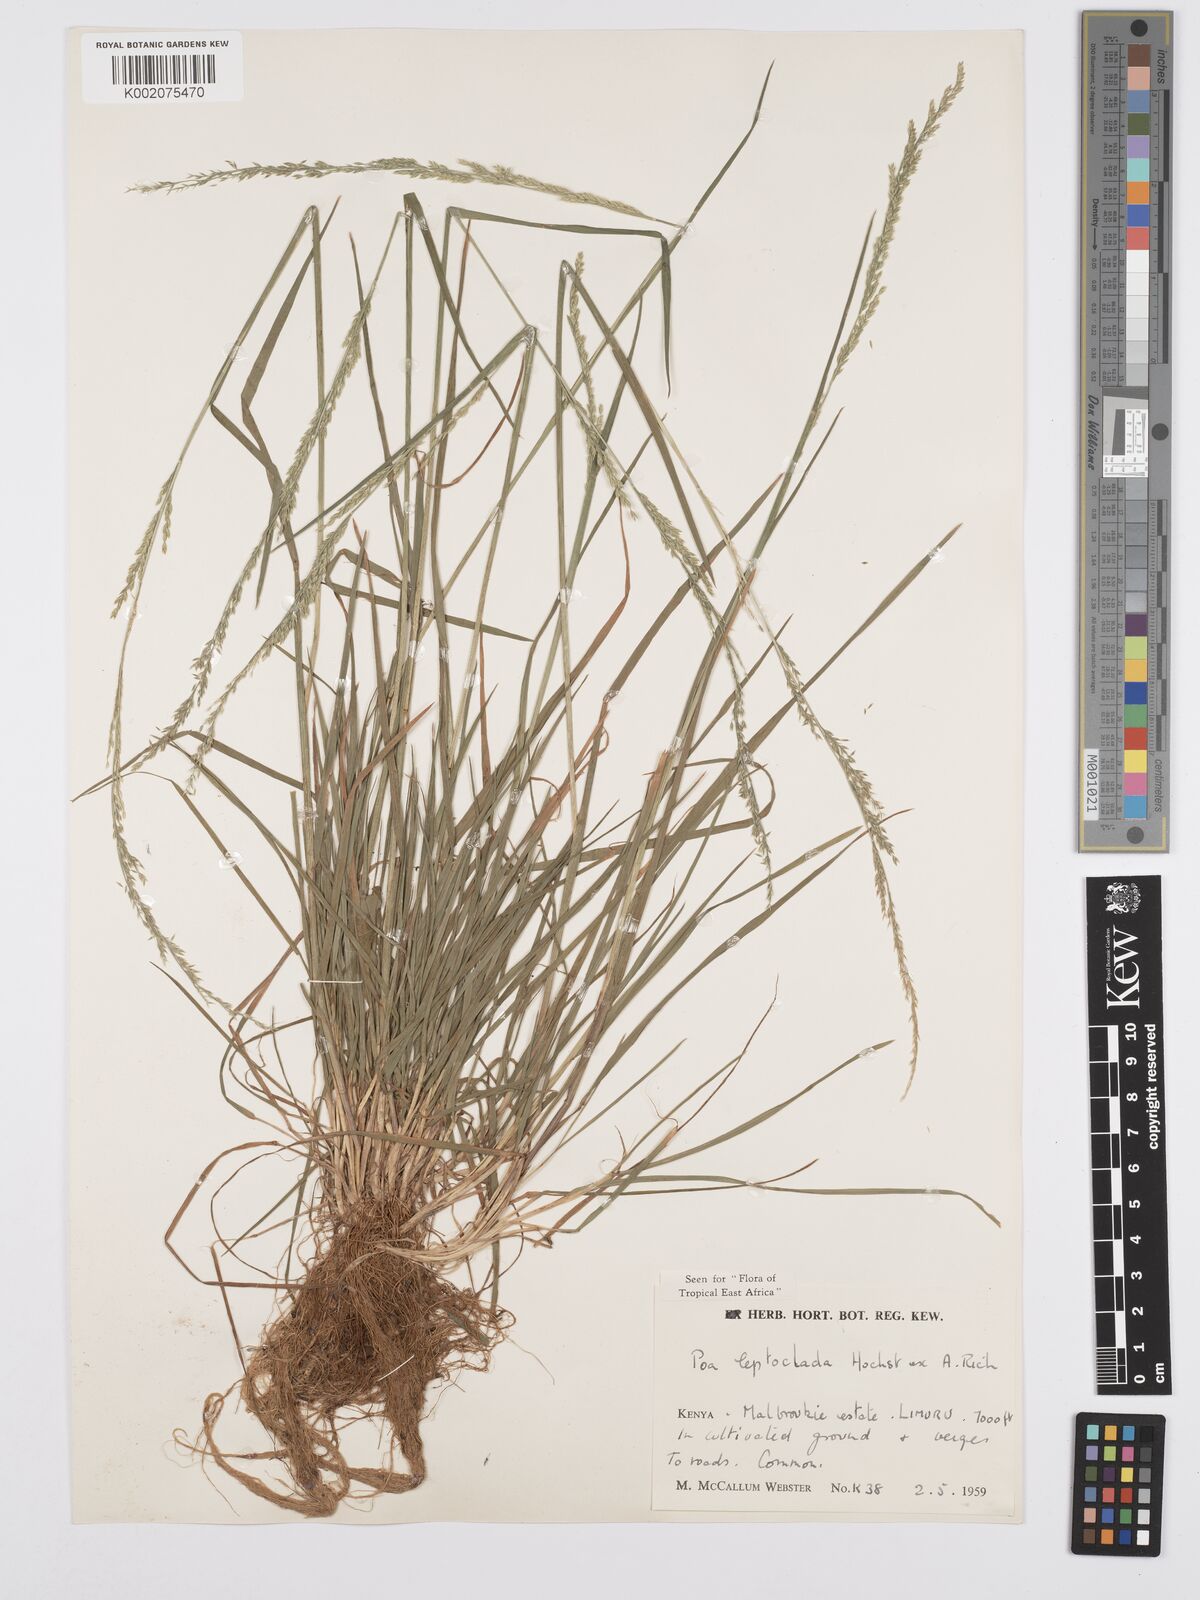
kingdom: Plantae
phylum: Tracheophyta
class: Liliopsida
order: Poales
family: Poaceae
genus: Poa
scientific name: Poa leptoclada
